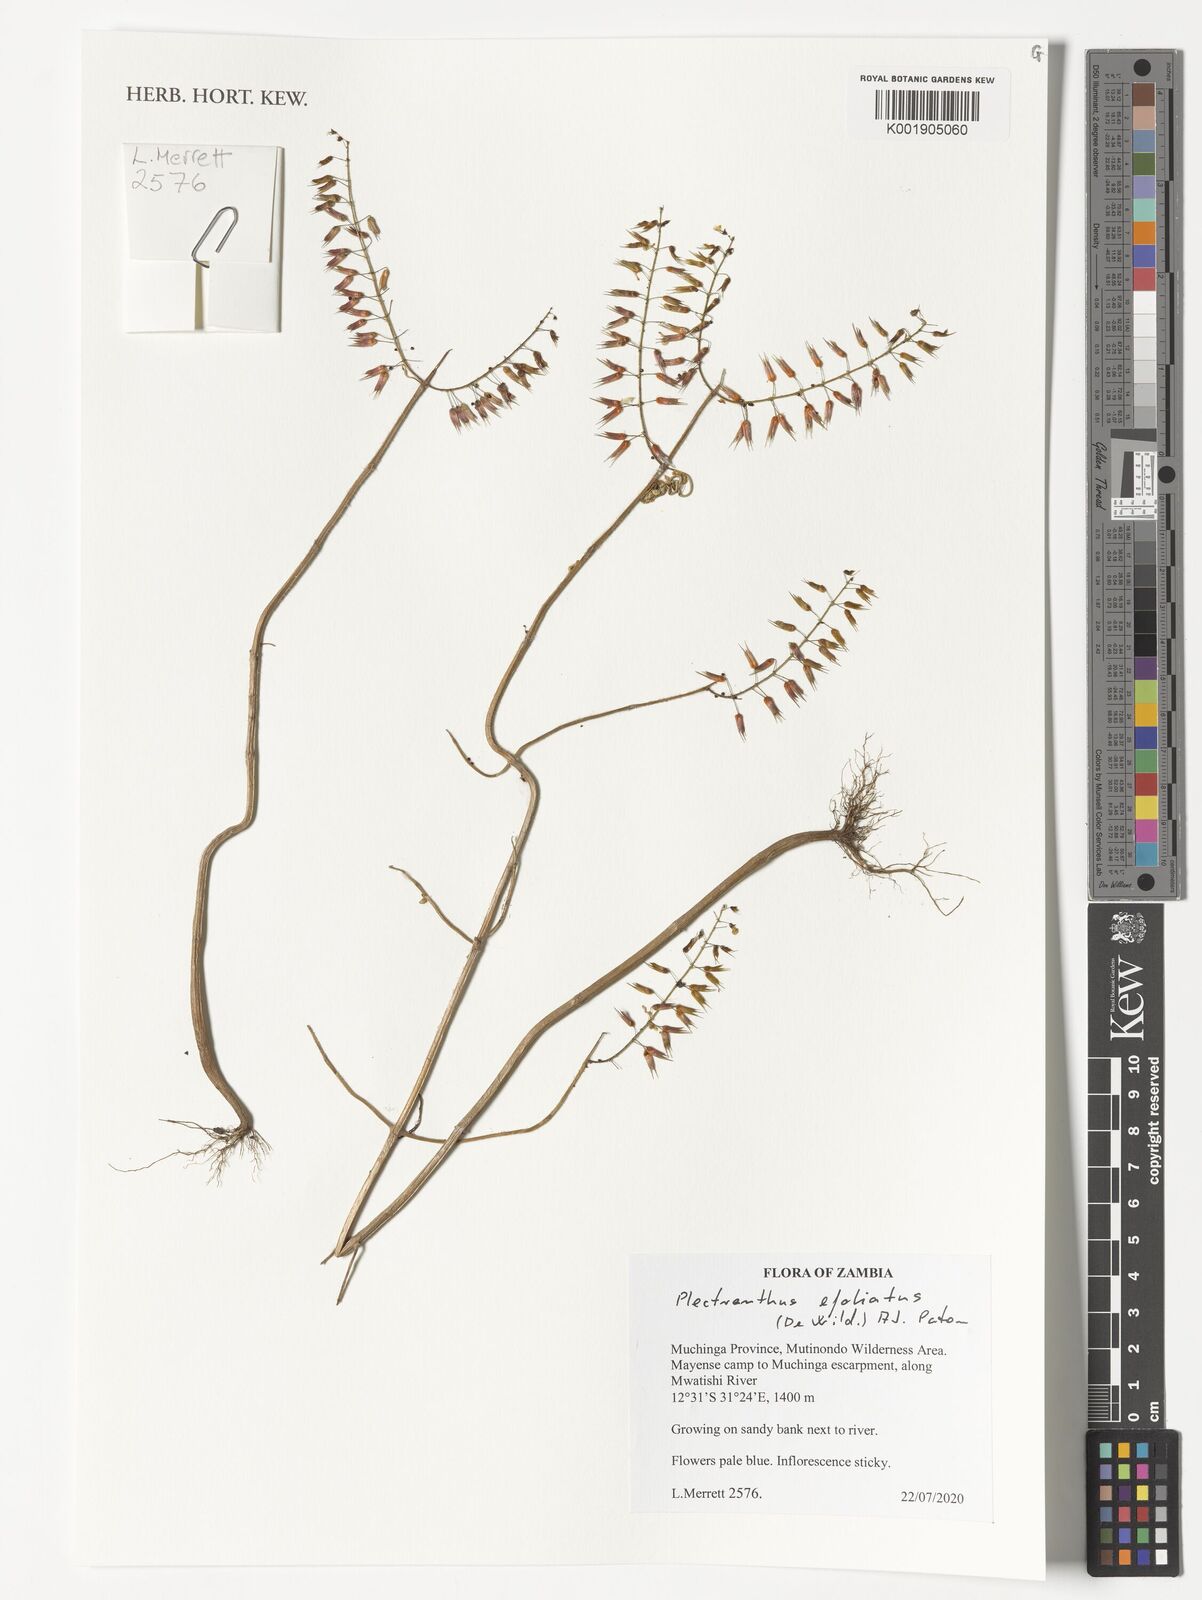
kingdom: Plantae
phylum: Tracheophyta
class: Magnoliopsida
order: Lamiales
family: Lamiaceae
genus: Coleus
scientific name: Coleus efoliatus
